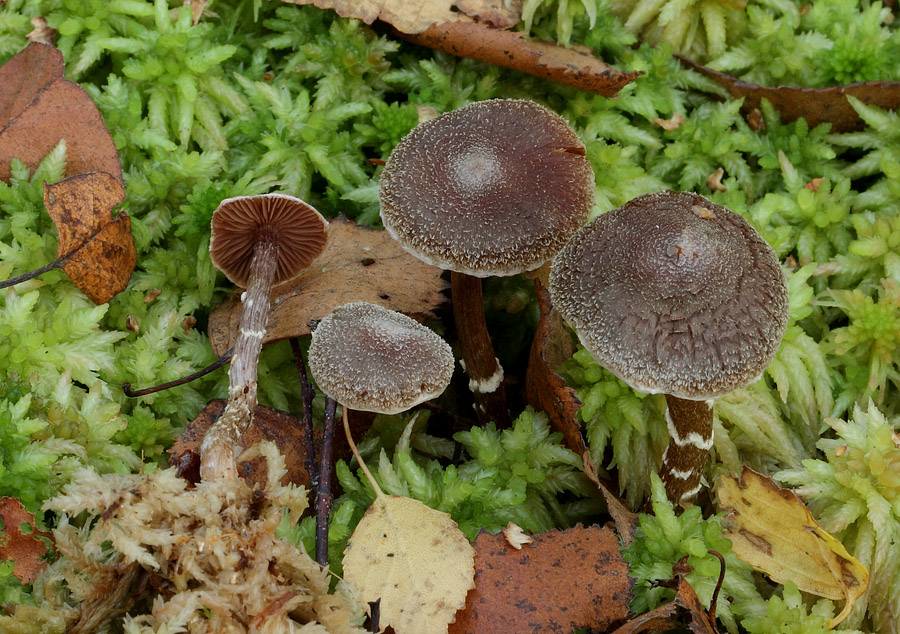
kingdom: Fungi
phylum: Basidiomycota
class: Agaricomycetes
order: Agaricales
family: Cortinariaceae
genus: Cortinarius
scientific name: Cortinarius flexipes
